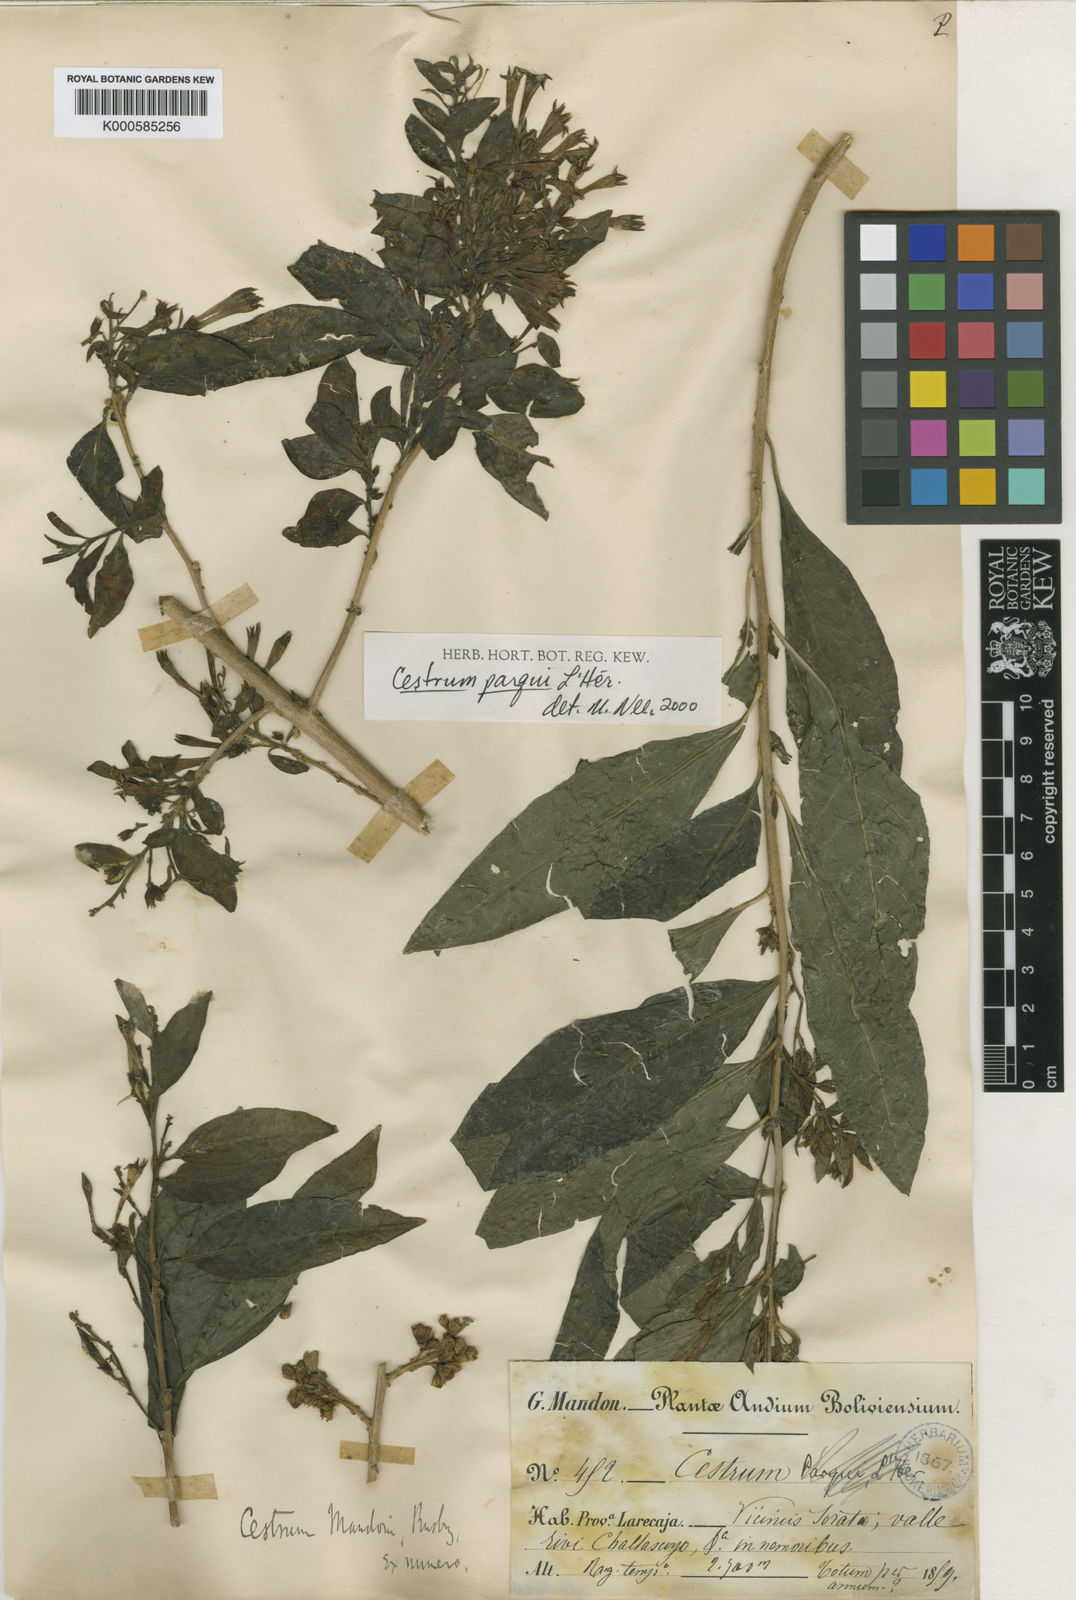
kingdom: Plantae
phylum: Tracheophyta
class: Magnoliopsida
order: Solanales
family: Solanaceae
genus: Cestrum
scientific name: Cestrum
